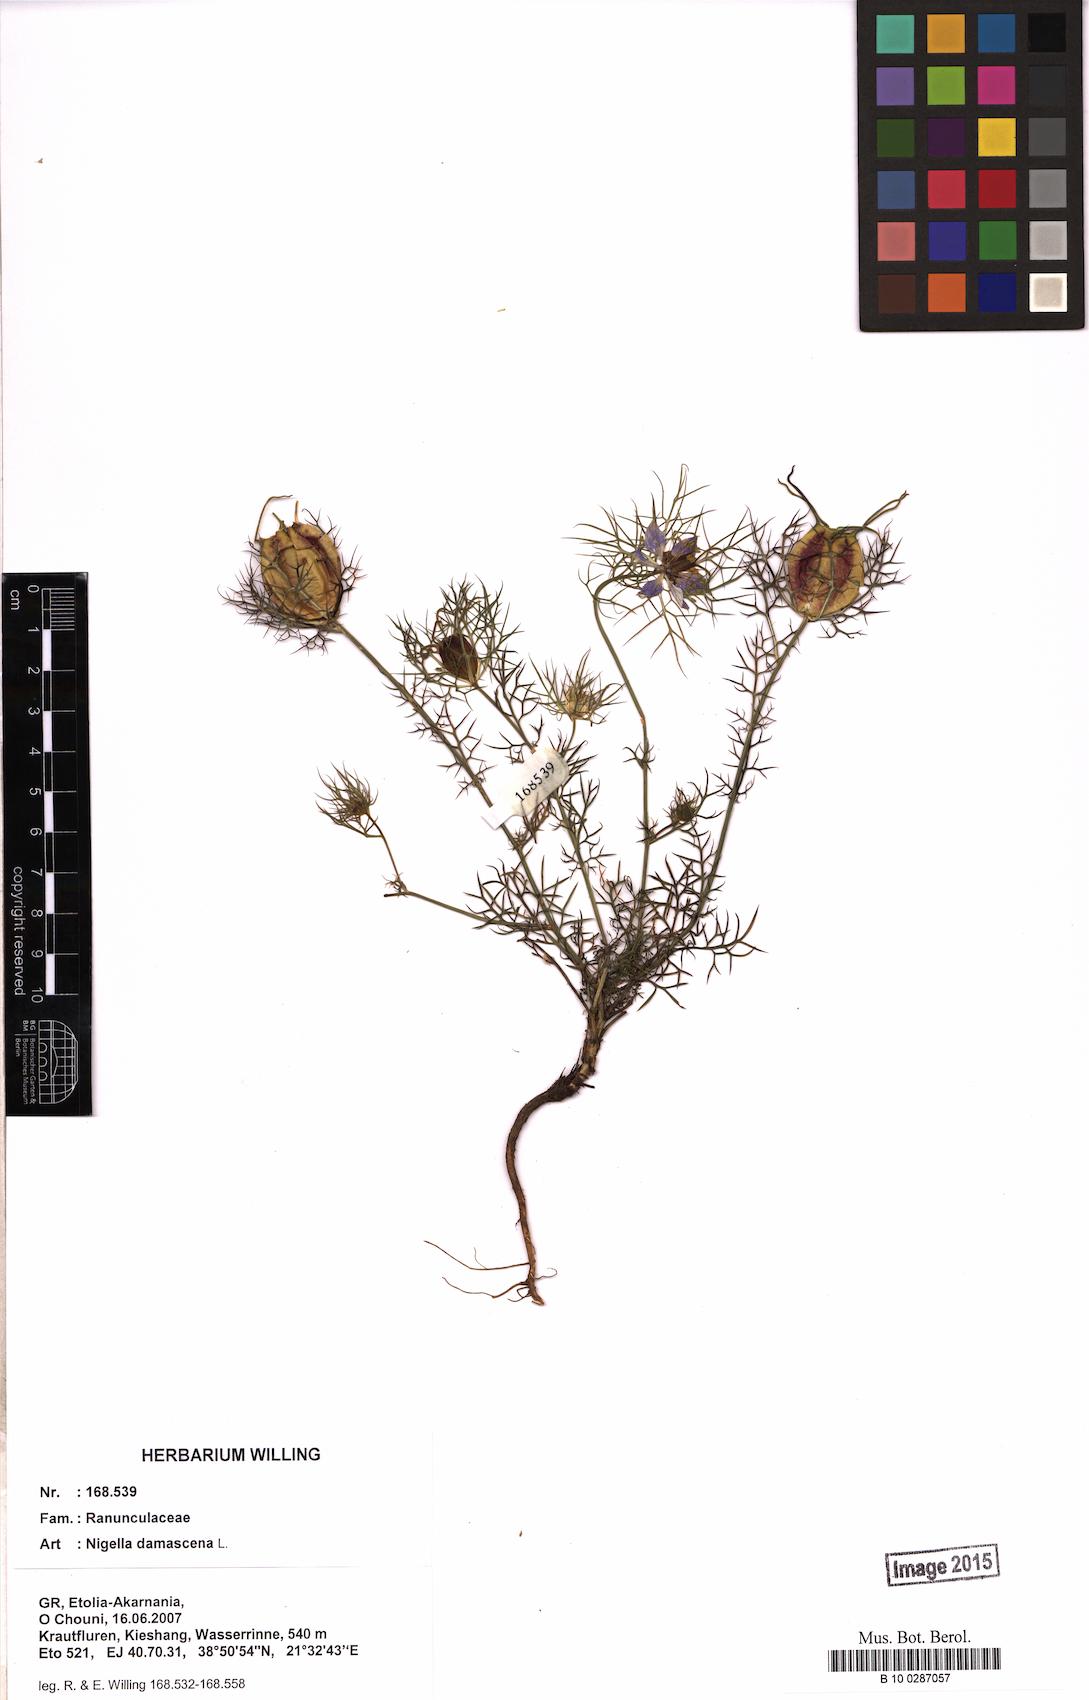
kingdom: Plantae
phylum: Tracheophyta
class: Magnoliopsida
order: Ranunculales
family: Ranunculaceae
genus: Nigella
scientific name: Nigella damascena
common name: Love-in-a-mist
